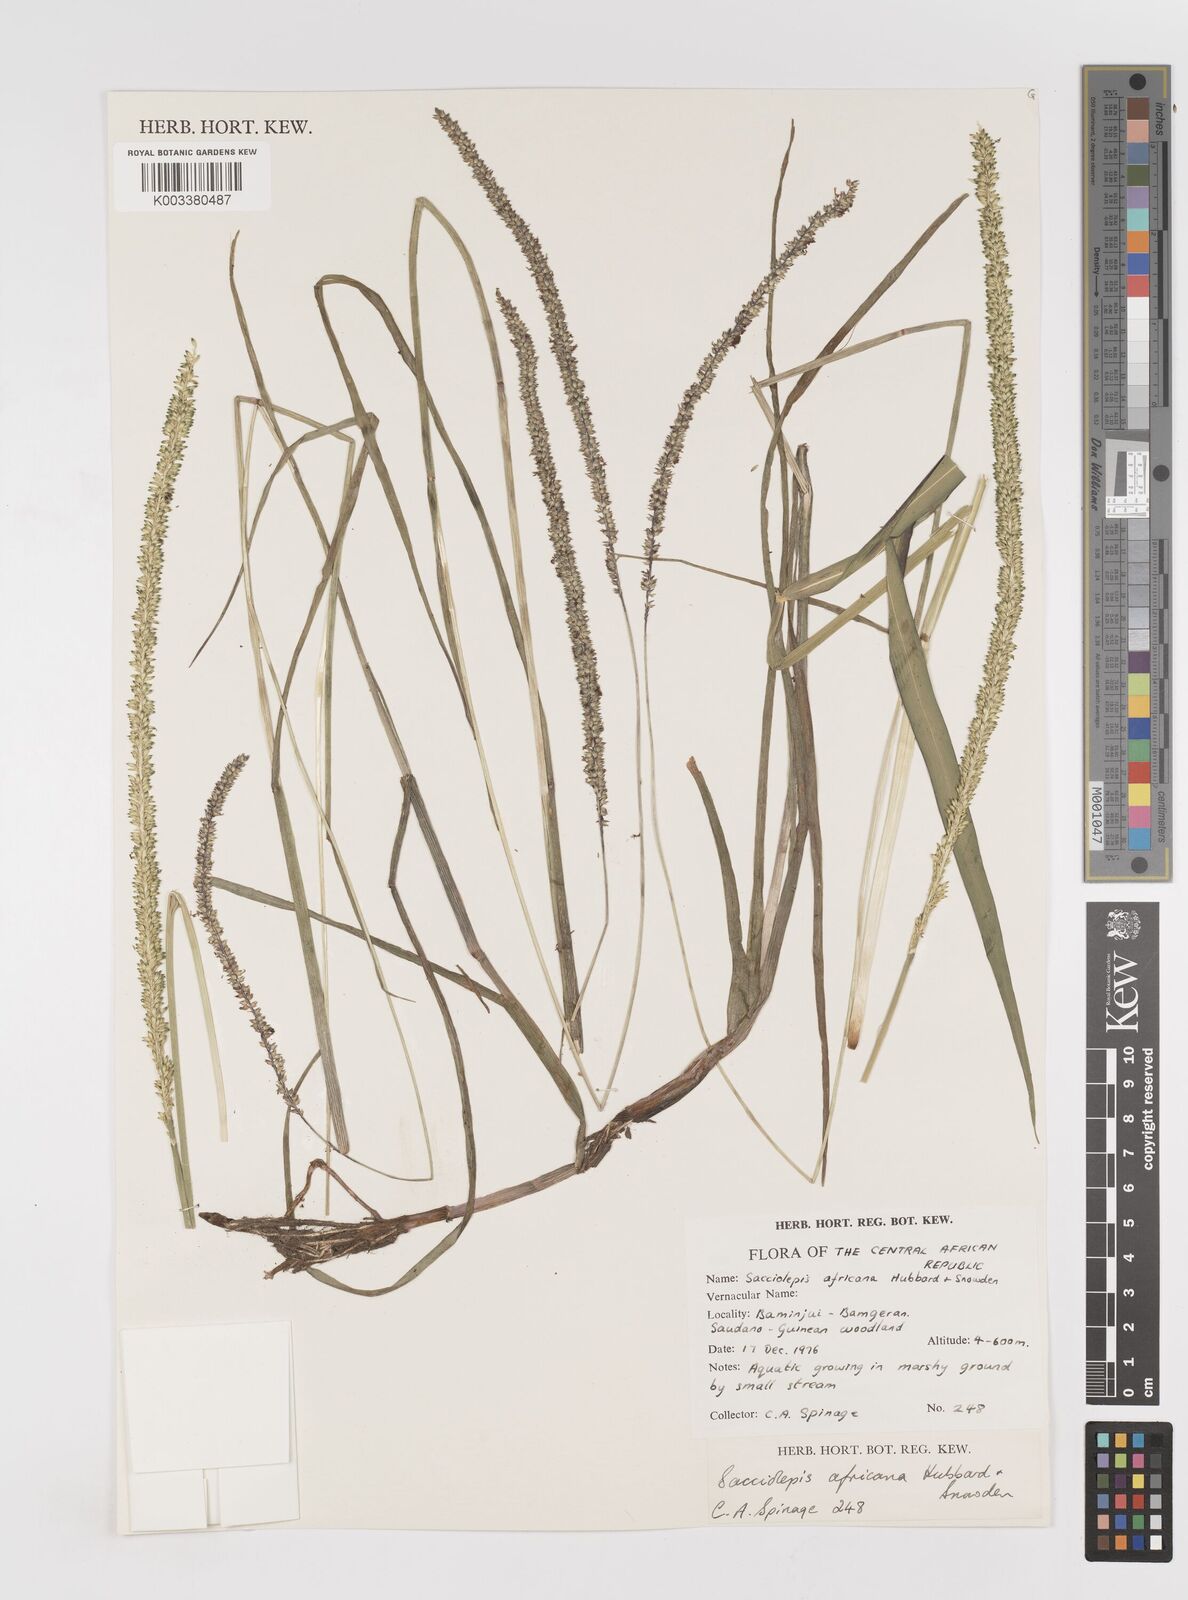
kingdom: Plantae
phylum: Tracheophyta
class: Liliopsida
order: Poales
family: Poaceae
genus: Sacciolepis
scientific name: Sacciolepis africana
